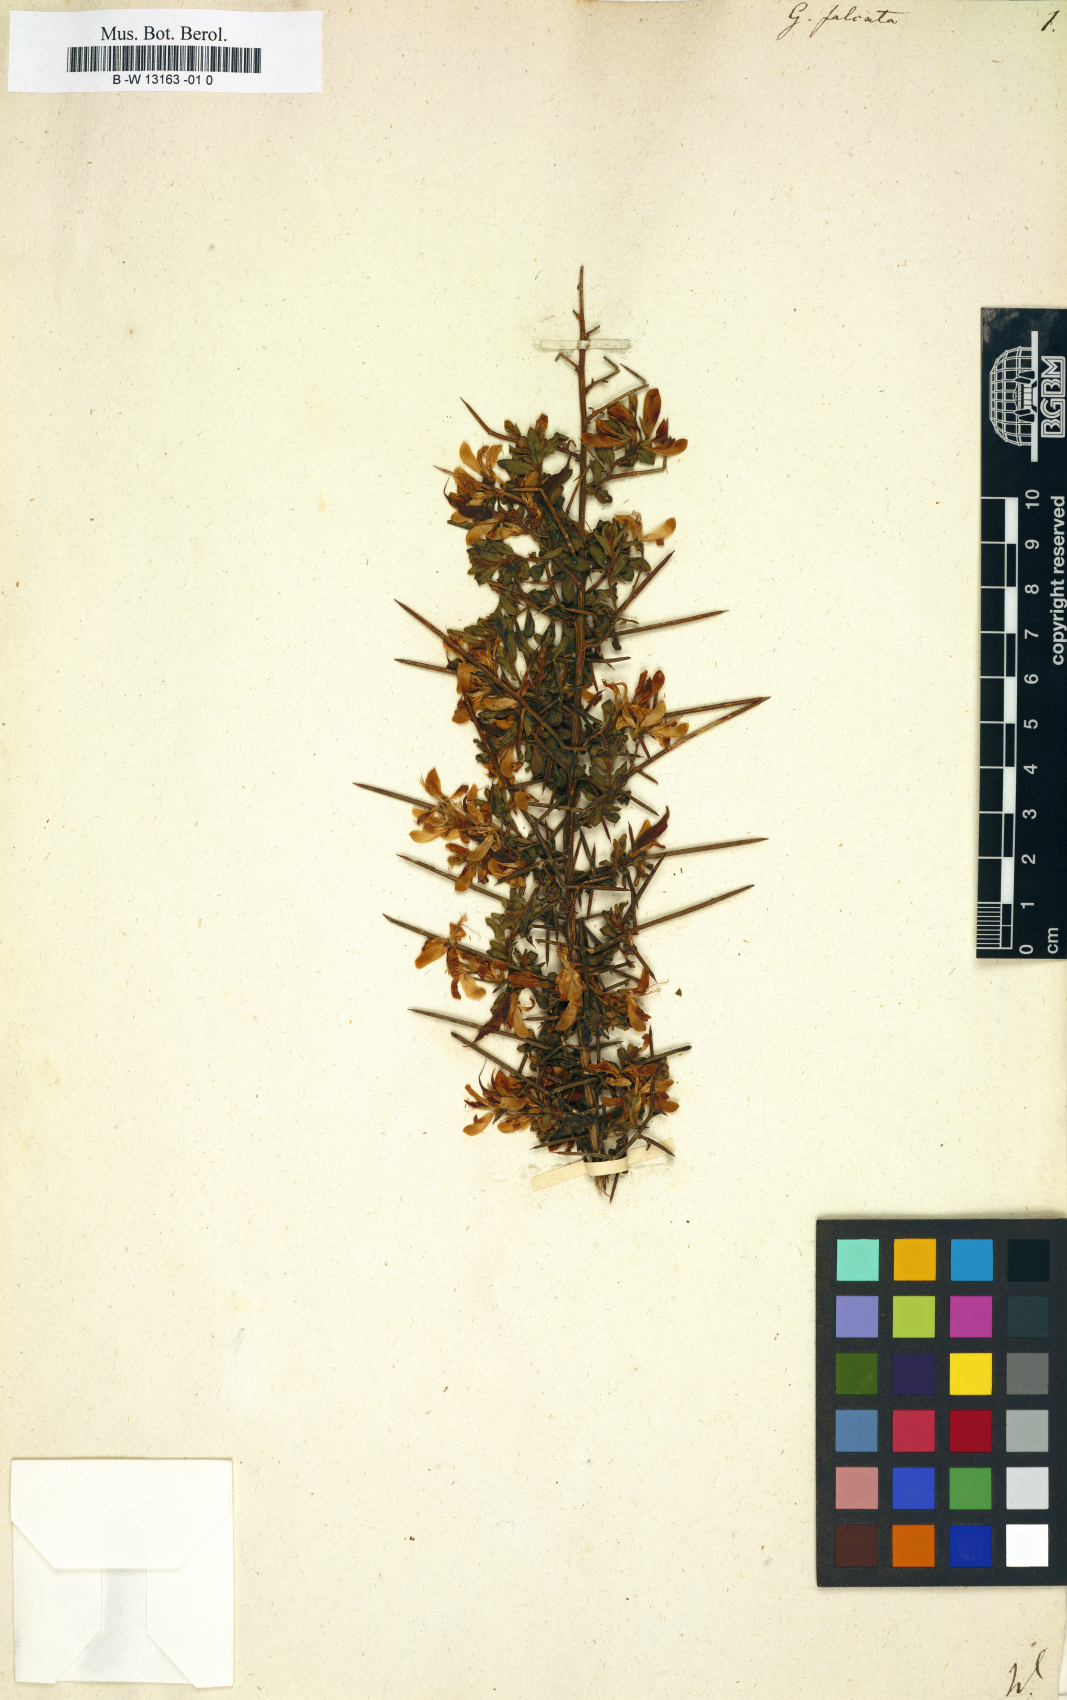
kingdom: Plantae
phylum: Tracheophyta
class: Magnoliopsida
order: Fabales
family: Fabaceae
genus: Genista
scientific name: Genista falcata
